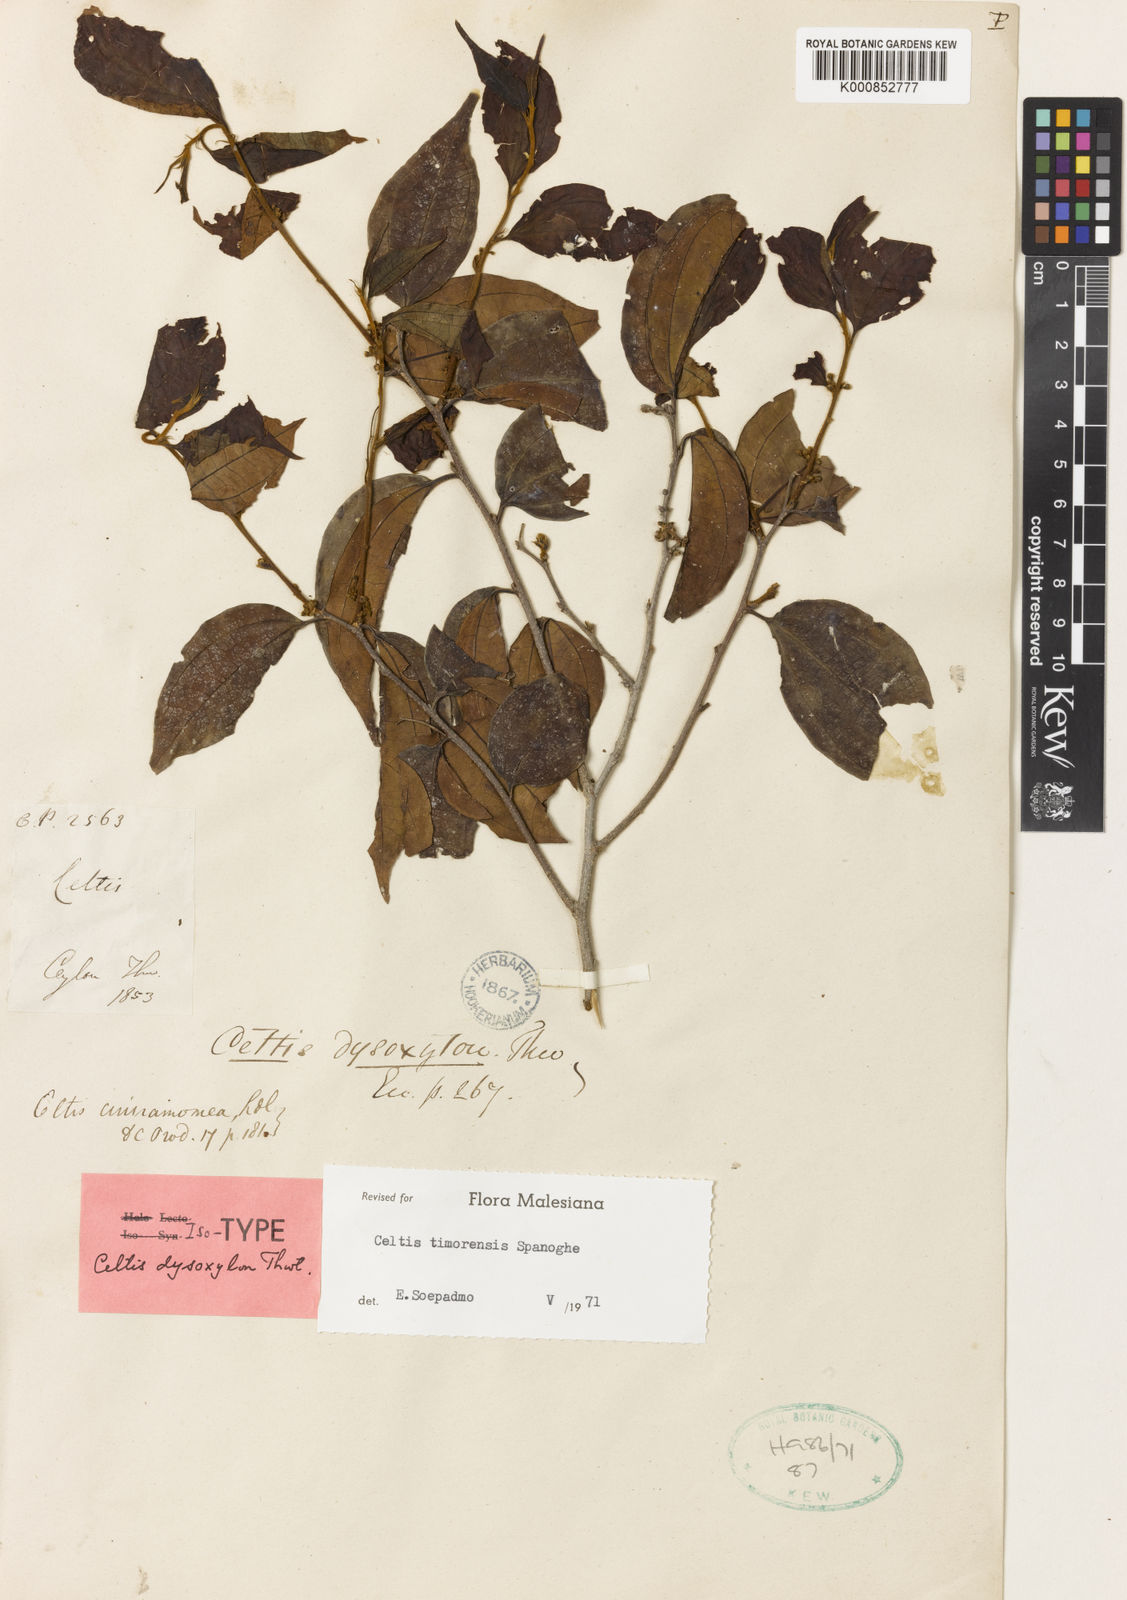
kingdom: Plantae
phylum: Tracheophyta
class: Magnoliopsida
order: Rosales
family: Cannabaceae
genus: Celtis
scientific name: Celtis timorensis
